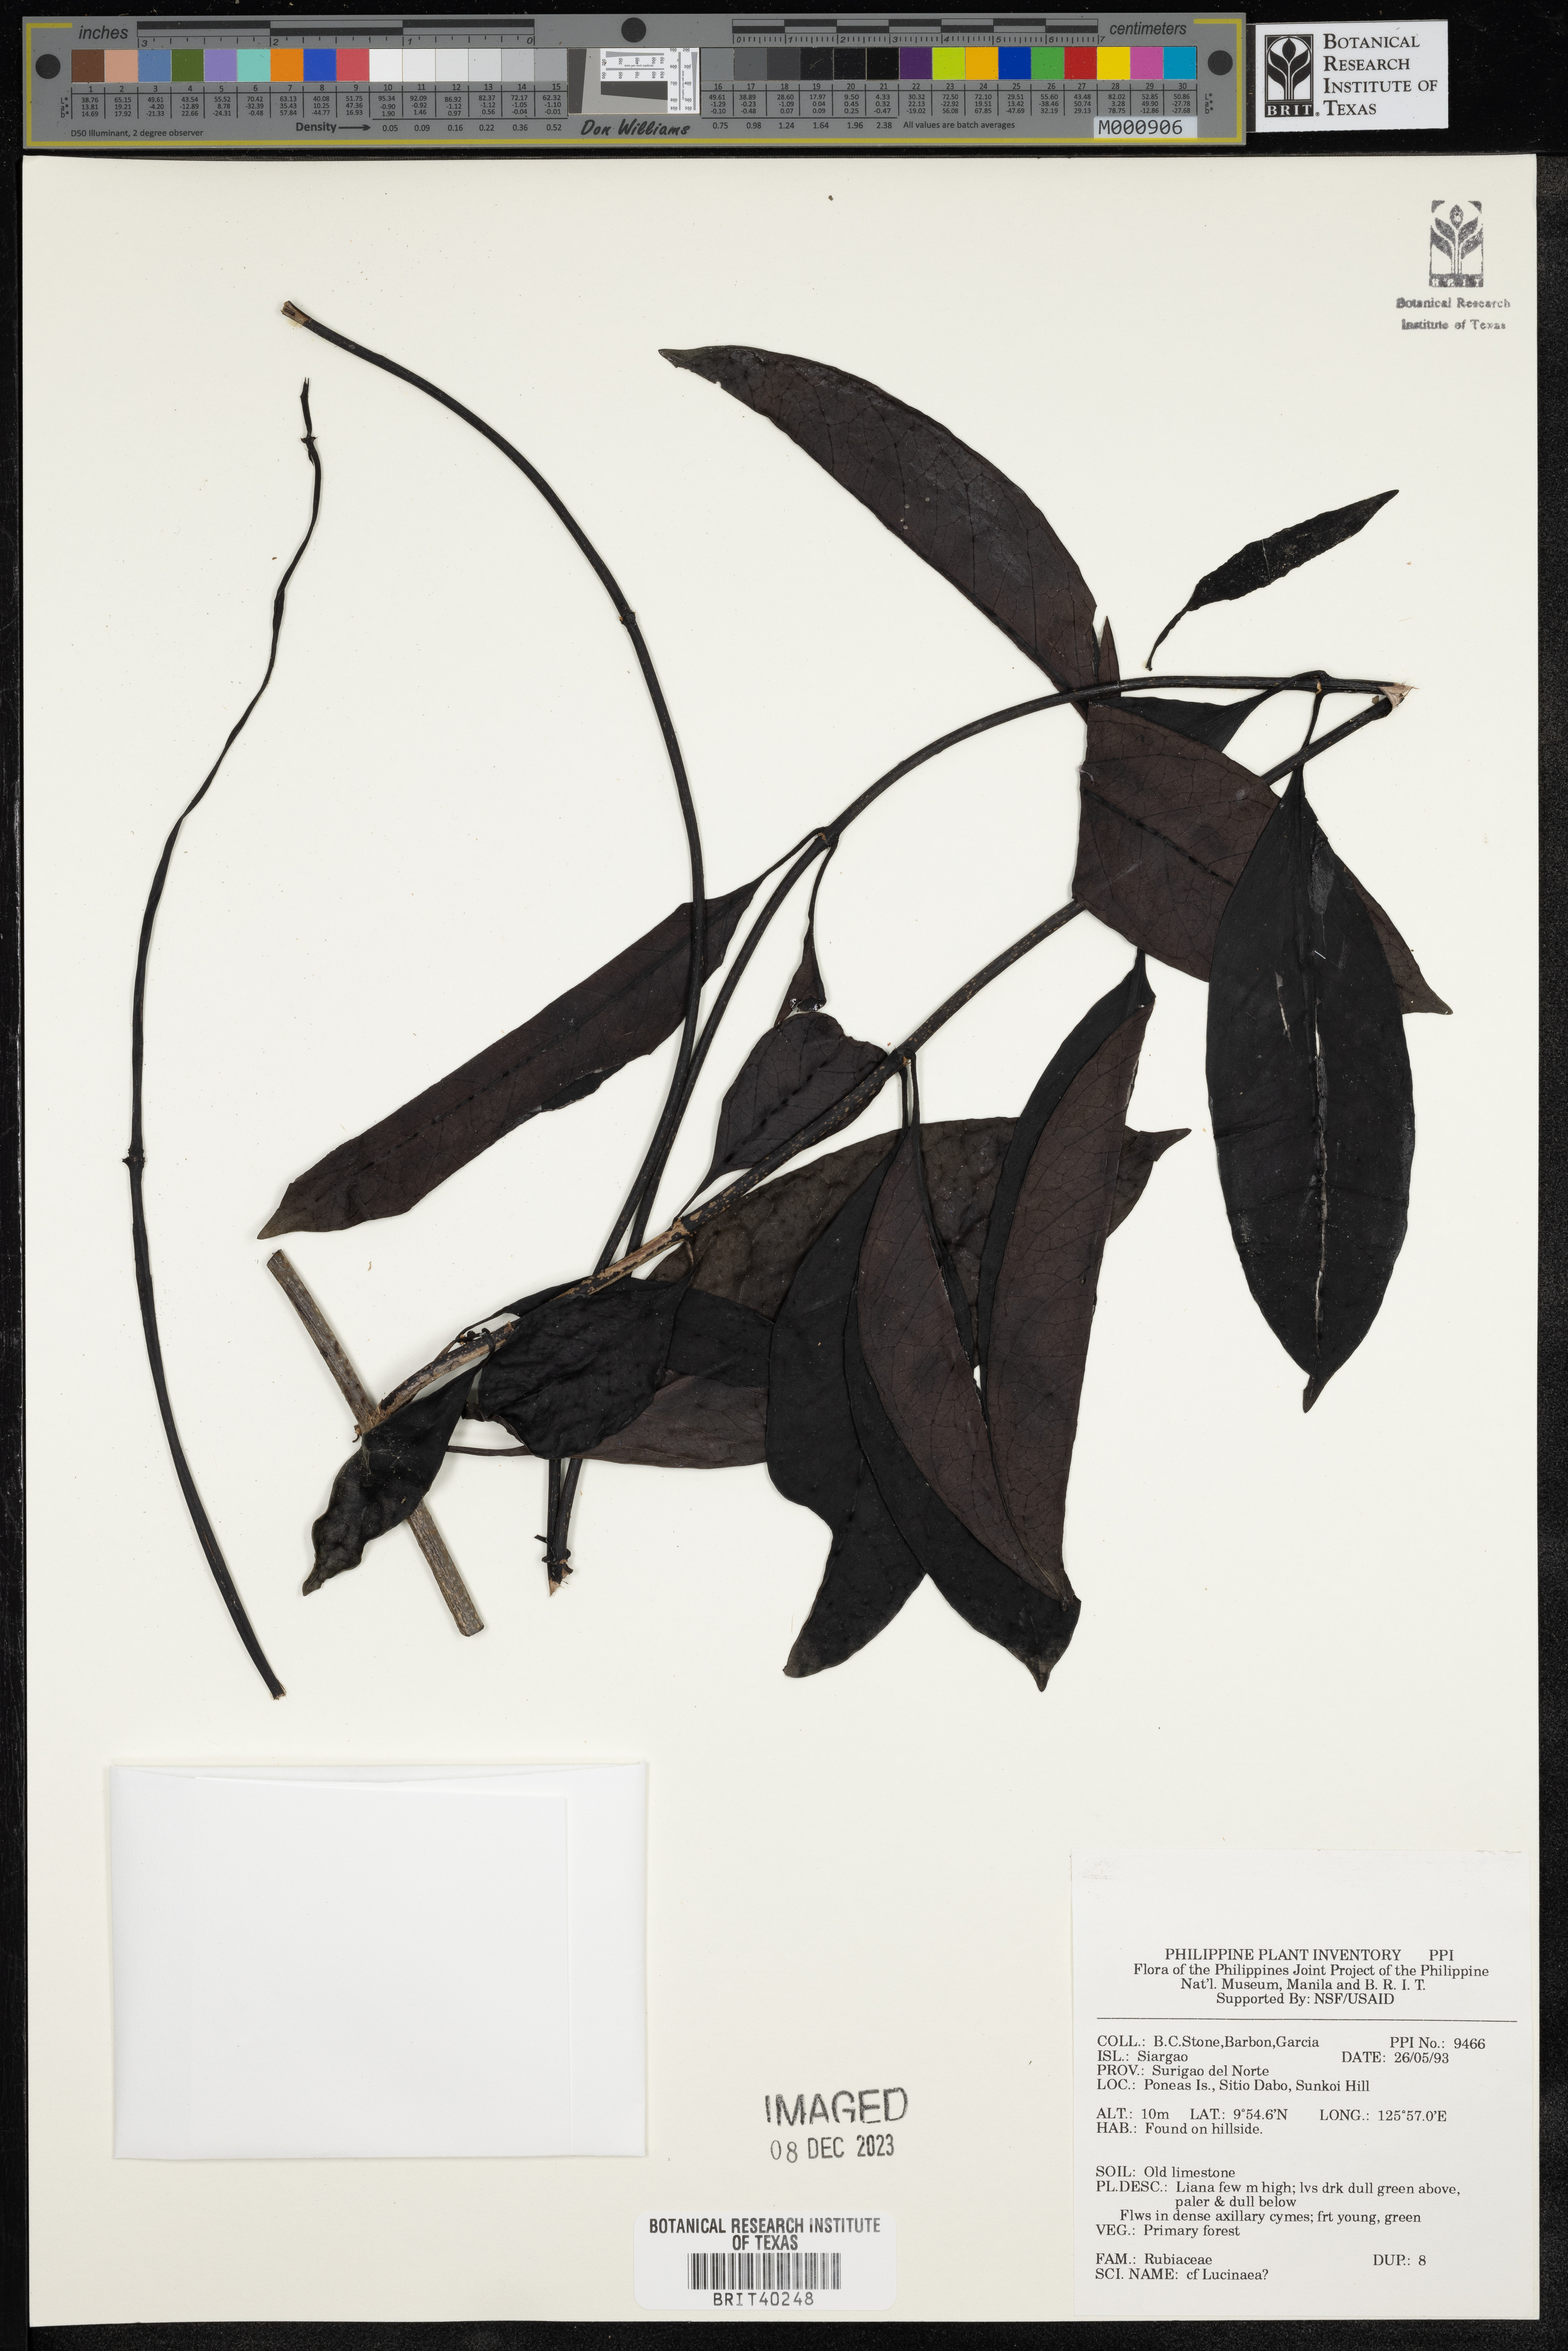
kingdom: Plantae
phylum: Tracheophyta
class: Magnoliopsida
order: Gentianales
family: Rubiaceae
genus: Schradera
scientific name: Schradera
